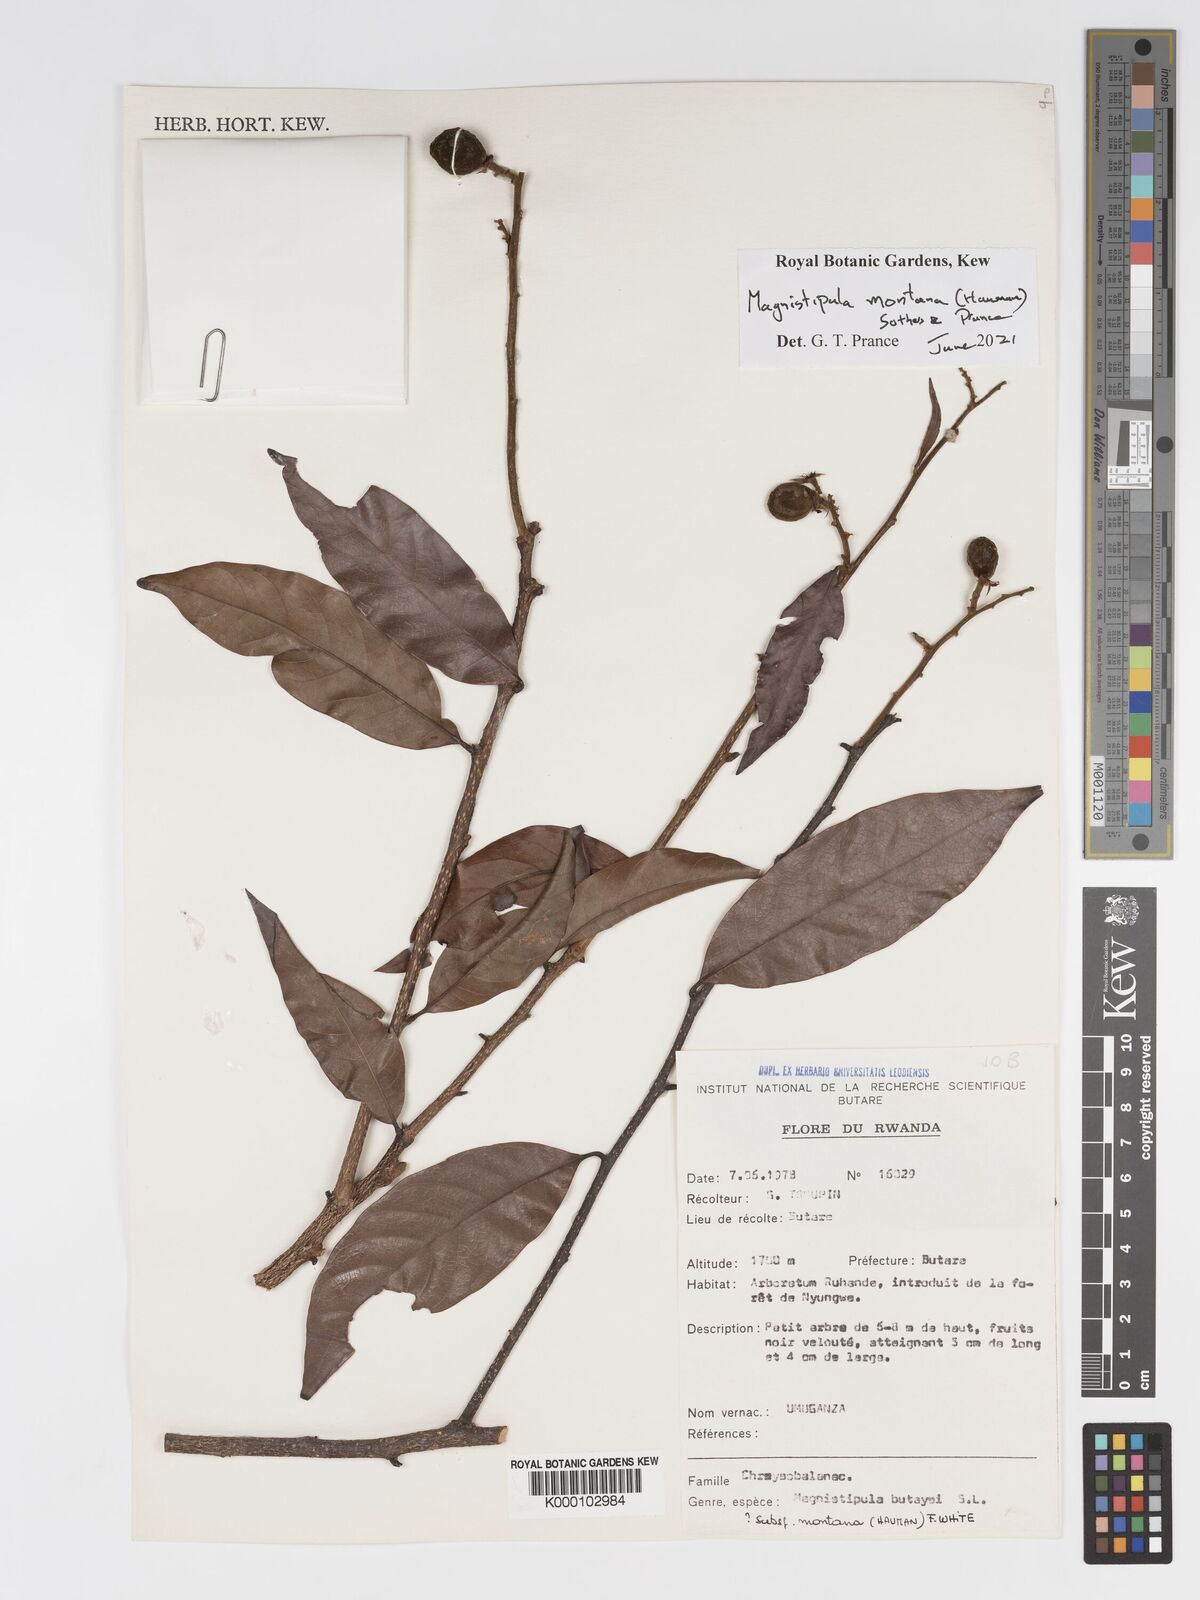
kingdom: Plantae
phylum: Tracheophyta
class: Magnoliopsida
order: Malpighiales
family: Chrysobalanaceae
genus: Magnistipula
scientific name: Magnistipula butayei
